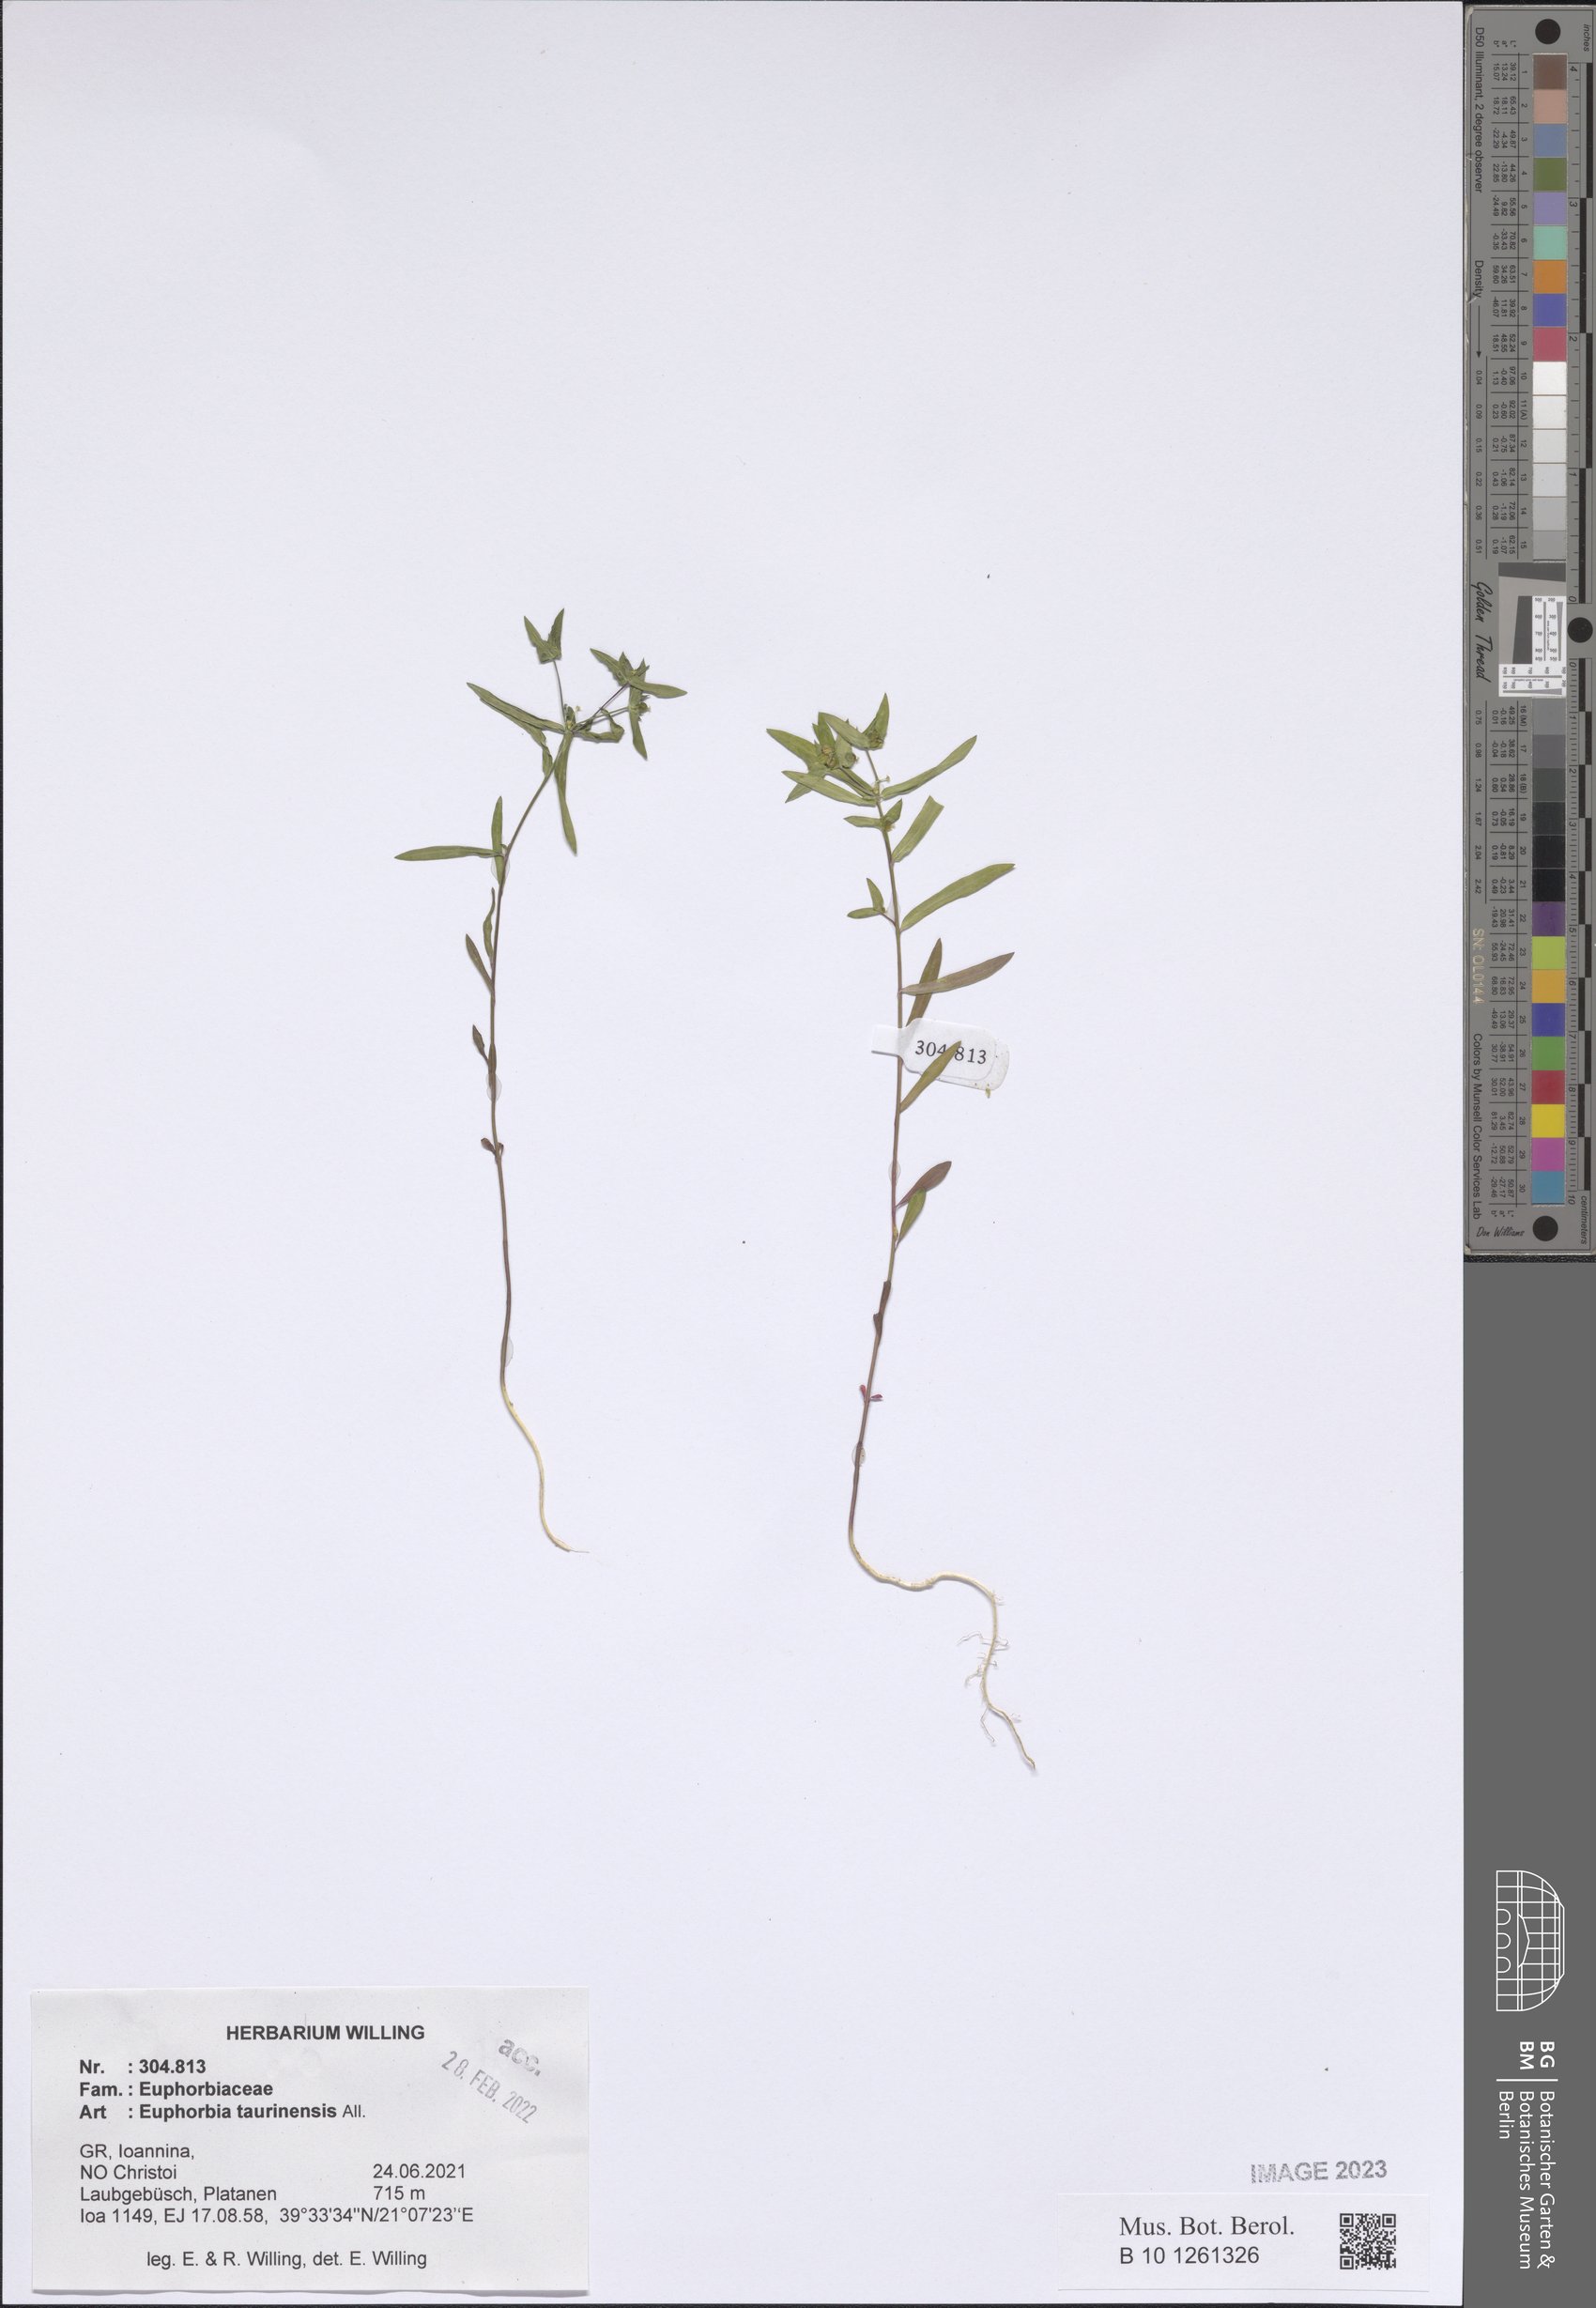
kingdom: Plantae
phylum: Tracheophyta
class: Magnoliopsida
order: Malpighiales
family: Euphorbiaceae
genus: Euphorbia
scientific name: Euphorbia taurinensis
